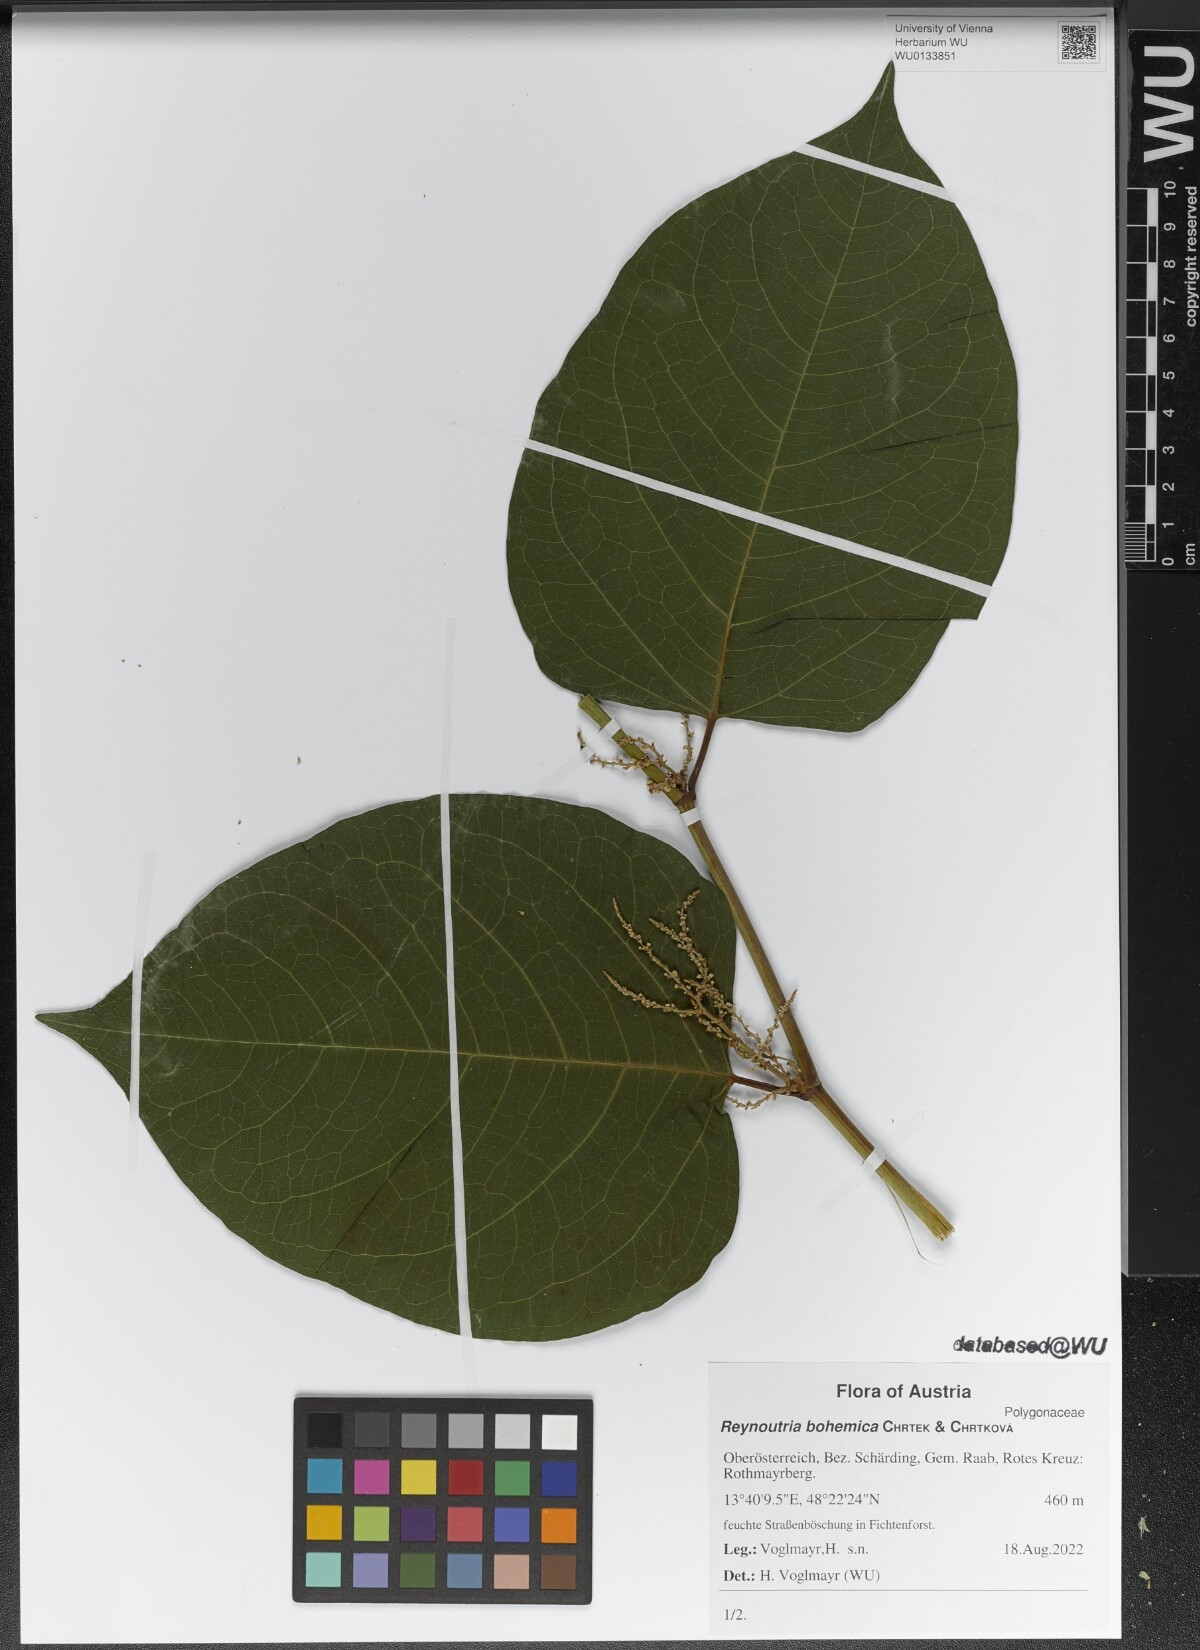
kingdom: Plantae
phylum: Tracheophyta
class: Magnoliopsida
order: Caryophyllales
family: Polygonaceae
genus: Reynoutria
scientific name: Reynoutria bohemica
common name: Bohemian knotweed
